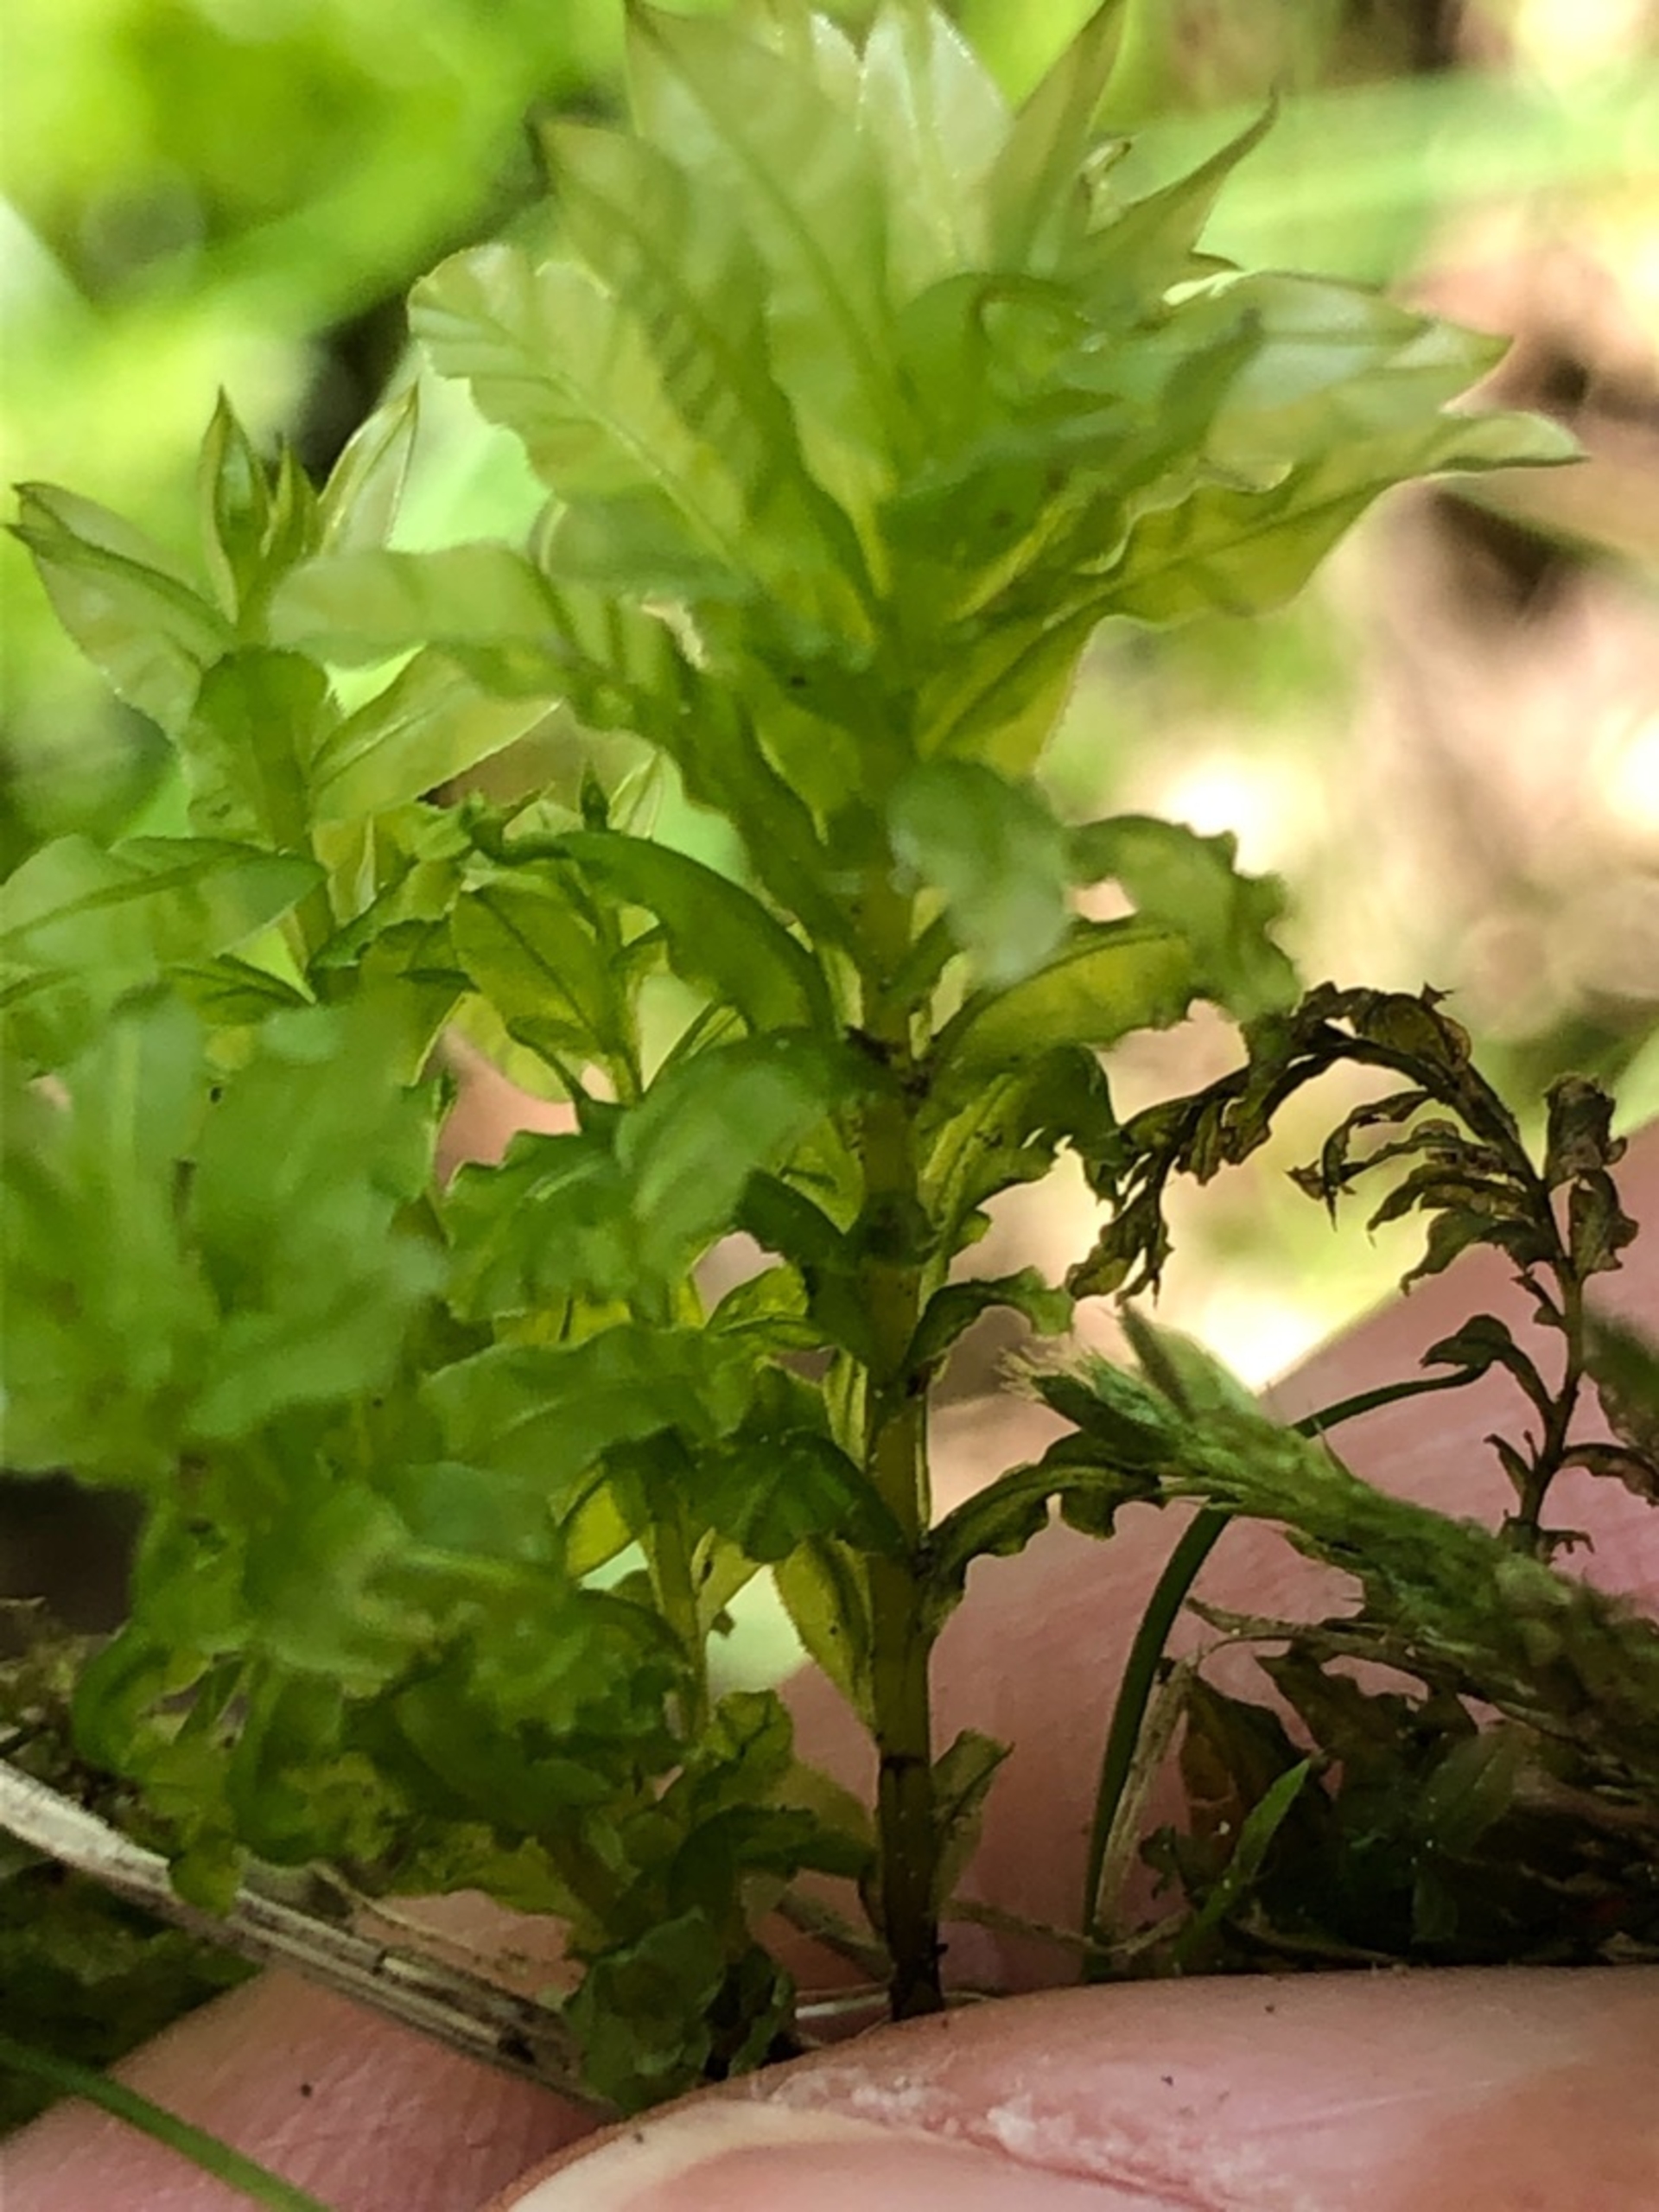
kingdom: Plantae
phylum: Bryophyta
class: Bryopsida
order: Bryales
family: Mniaceae
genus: Plagiomnium
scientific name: Plagiomnium undulatum
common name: Bølget krybstjerne
